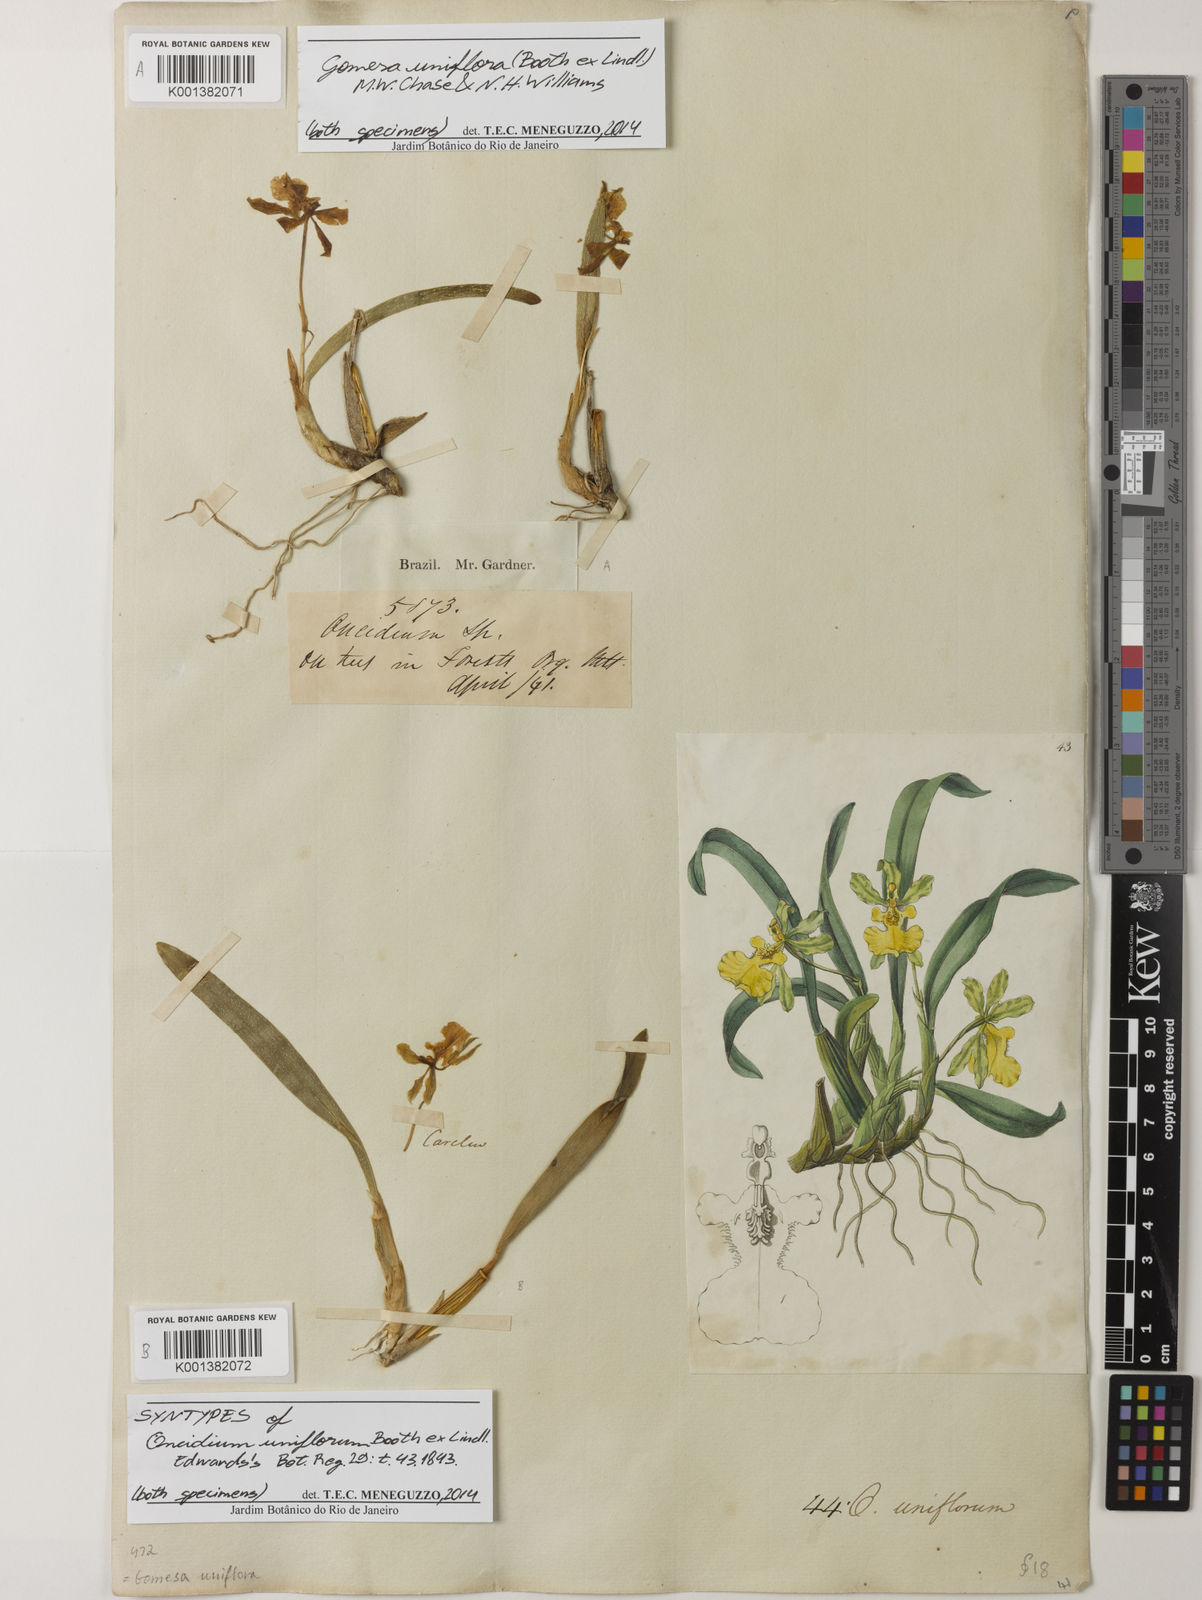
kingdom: Plantae
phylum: Tracheophyta
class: Liliopsida
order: Asparagales
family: Orchidaceae
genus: Gomesa
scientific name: Gomesa uniflora
